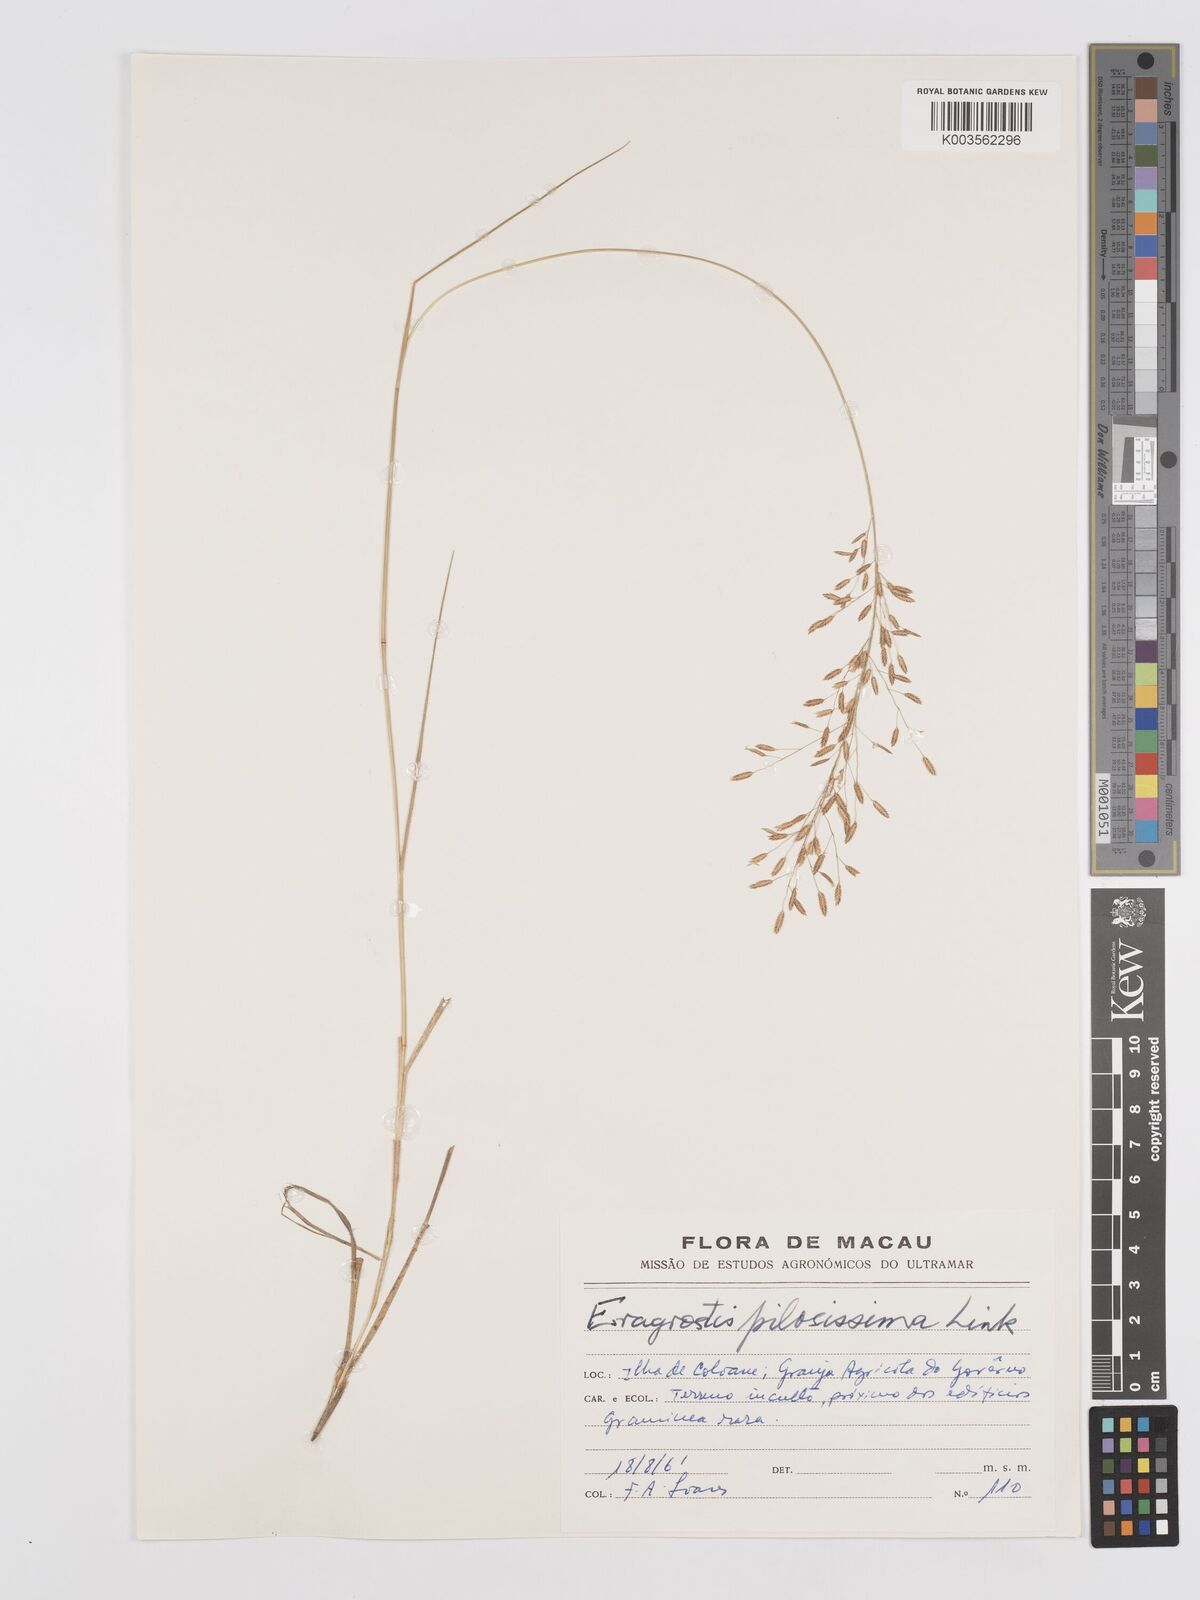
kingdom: Plantae
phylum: Tracheophyta
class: Liliopsida
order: Poales
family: Poaceae
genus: Eragrostis
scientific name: Eragrostis pilosissima
